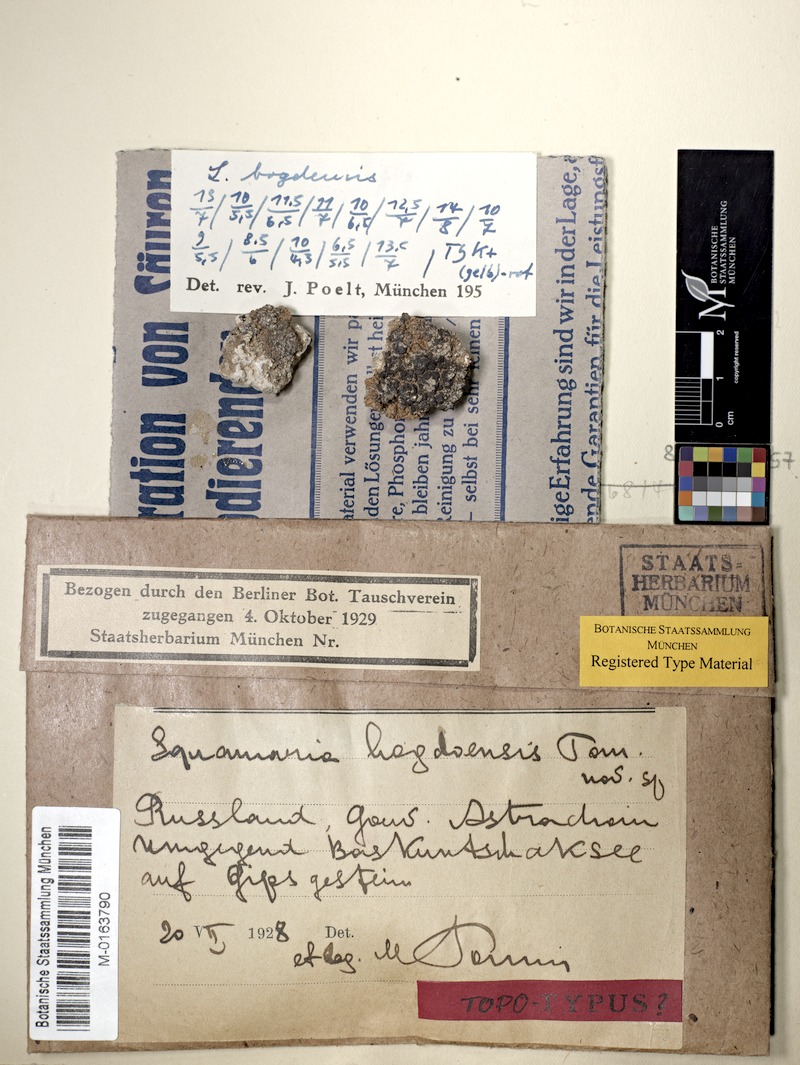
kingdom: Fungi
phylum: Ascomycota
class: Lecanoromycetes
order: Lecanorales
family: Lecanoraceae
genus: Protoparmeliopsis
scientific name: Protoparmeliopsis bogdoensis
